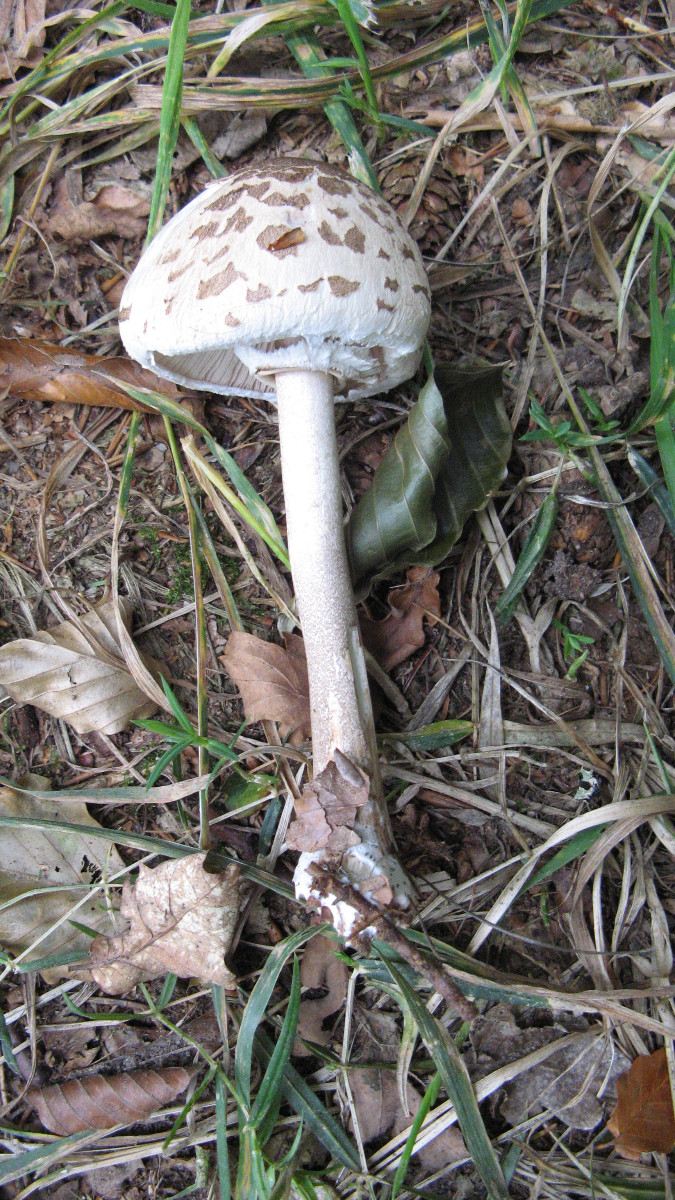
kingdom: Fungi
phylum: Basidiomycota
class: Agaricomycetes
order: Agaricales
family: Agaricaceae
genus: Macrolepiota
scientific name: Macrolepiota mastoidea
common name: puklet kæmpeparasolhat
